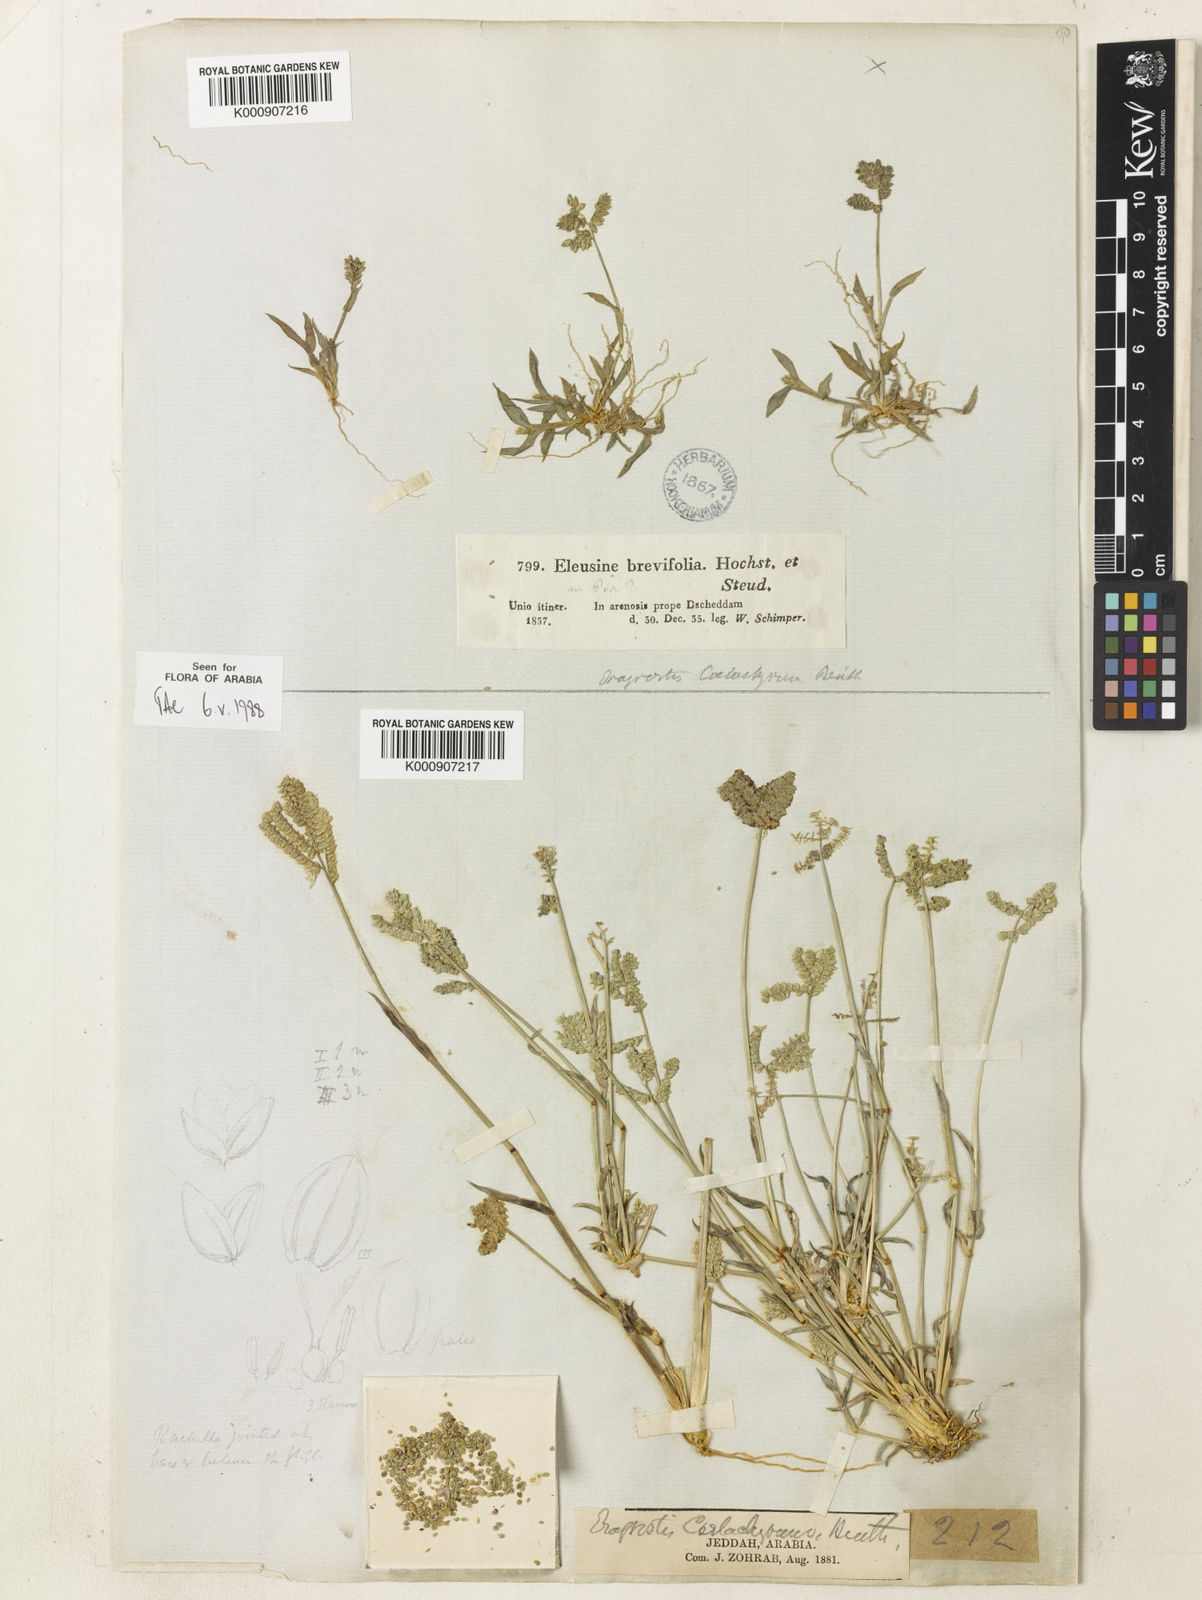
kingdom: Plantae
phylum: Tracheophyta
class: Liliopsida
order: Poales
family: Poaceae
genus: Coelachyrum
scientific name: Coelachyrum brevifolium
